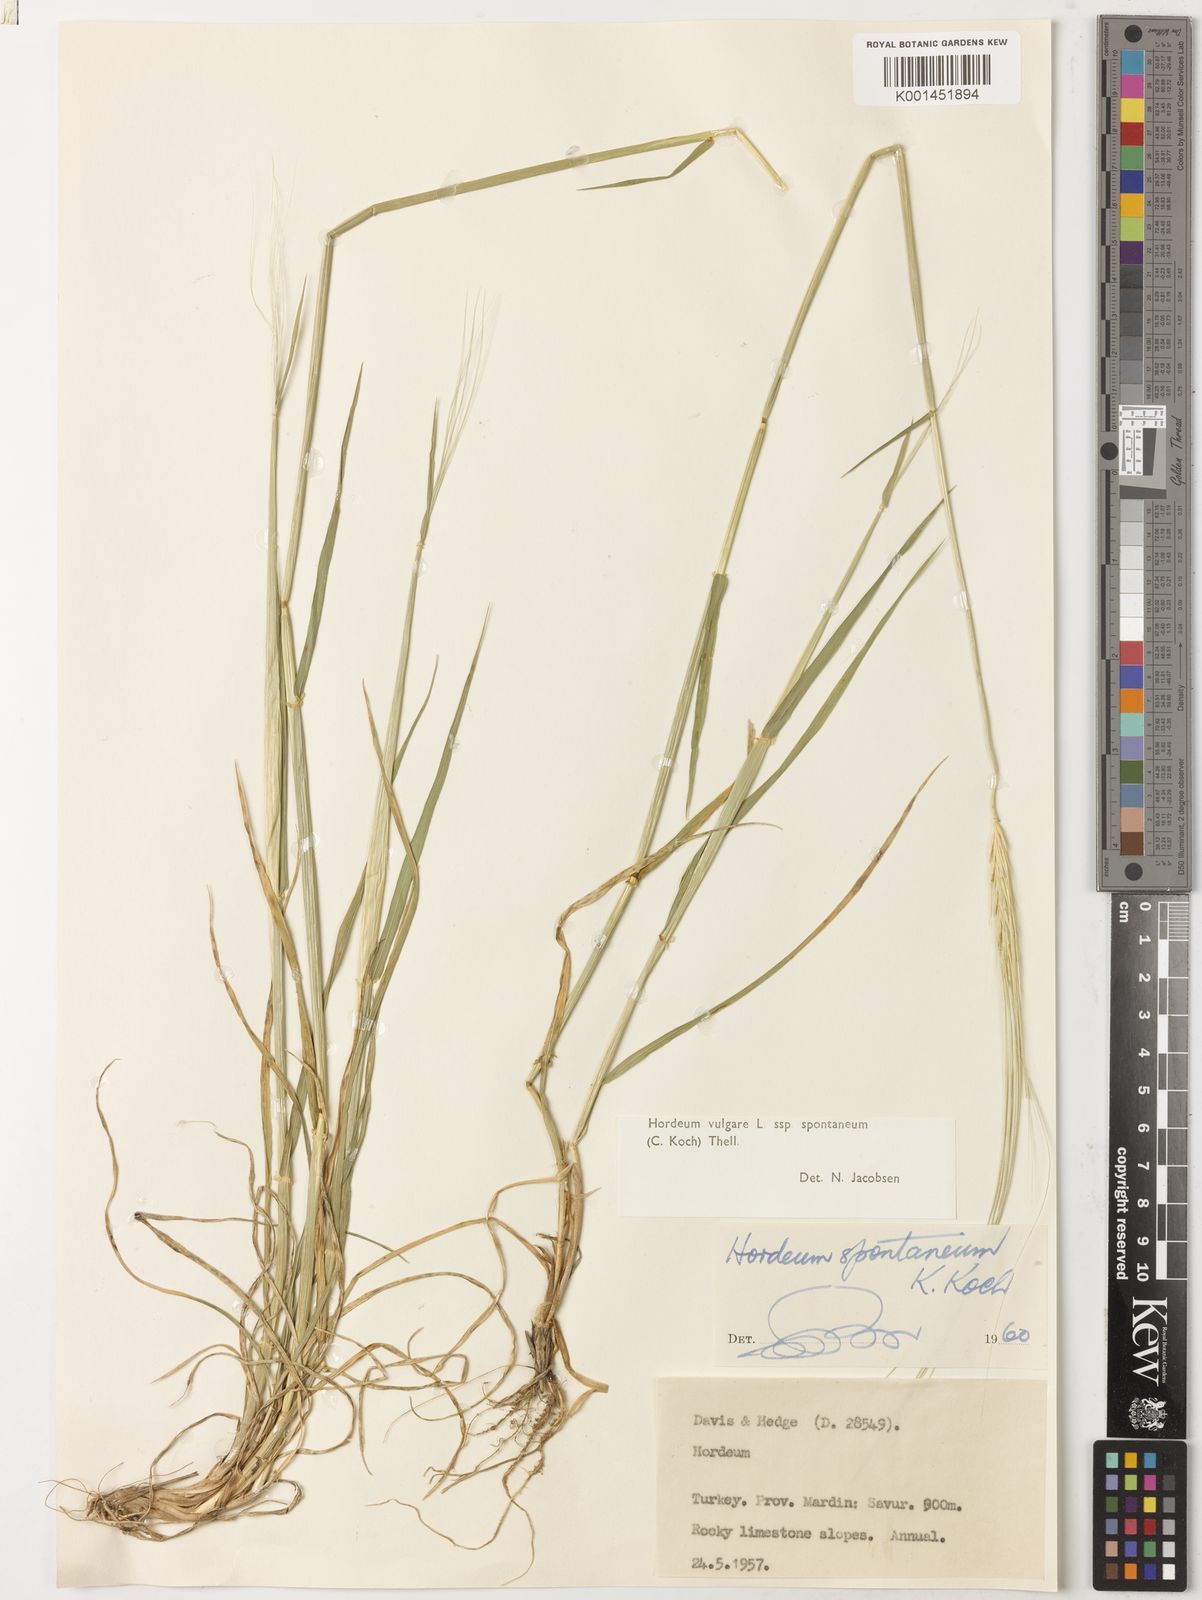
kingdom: Plantae
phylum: Tracheophyta
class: Liliopsida
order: Poales
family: Poaceae
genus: Hordeum
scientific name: Hordeum spontaneum
